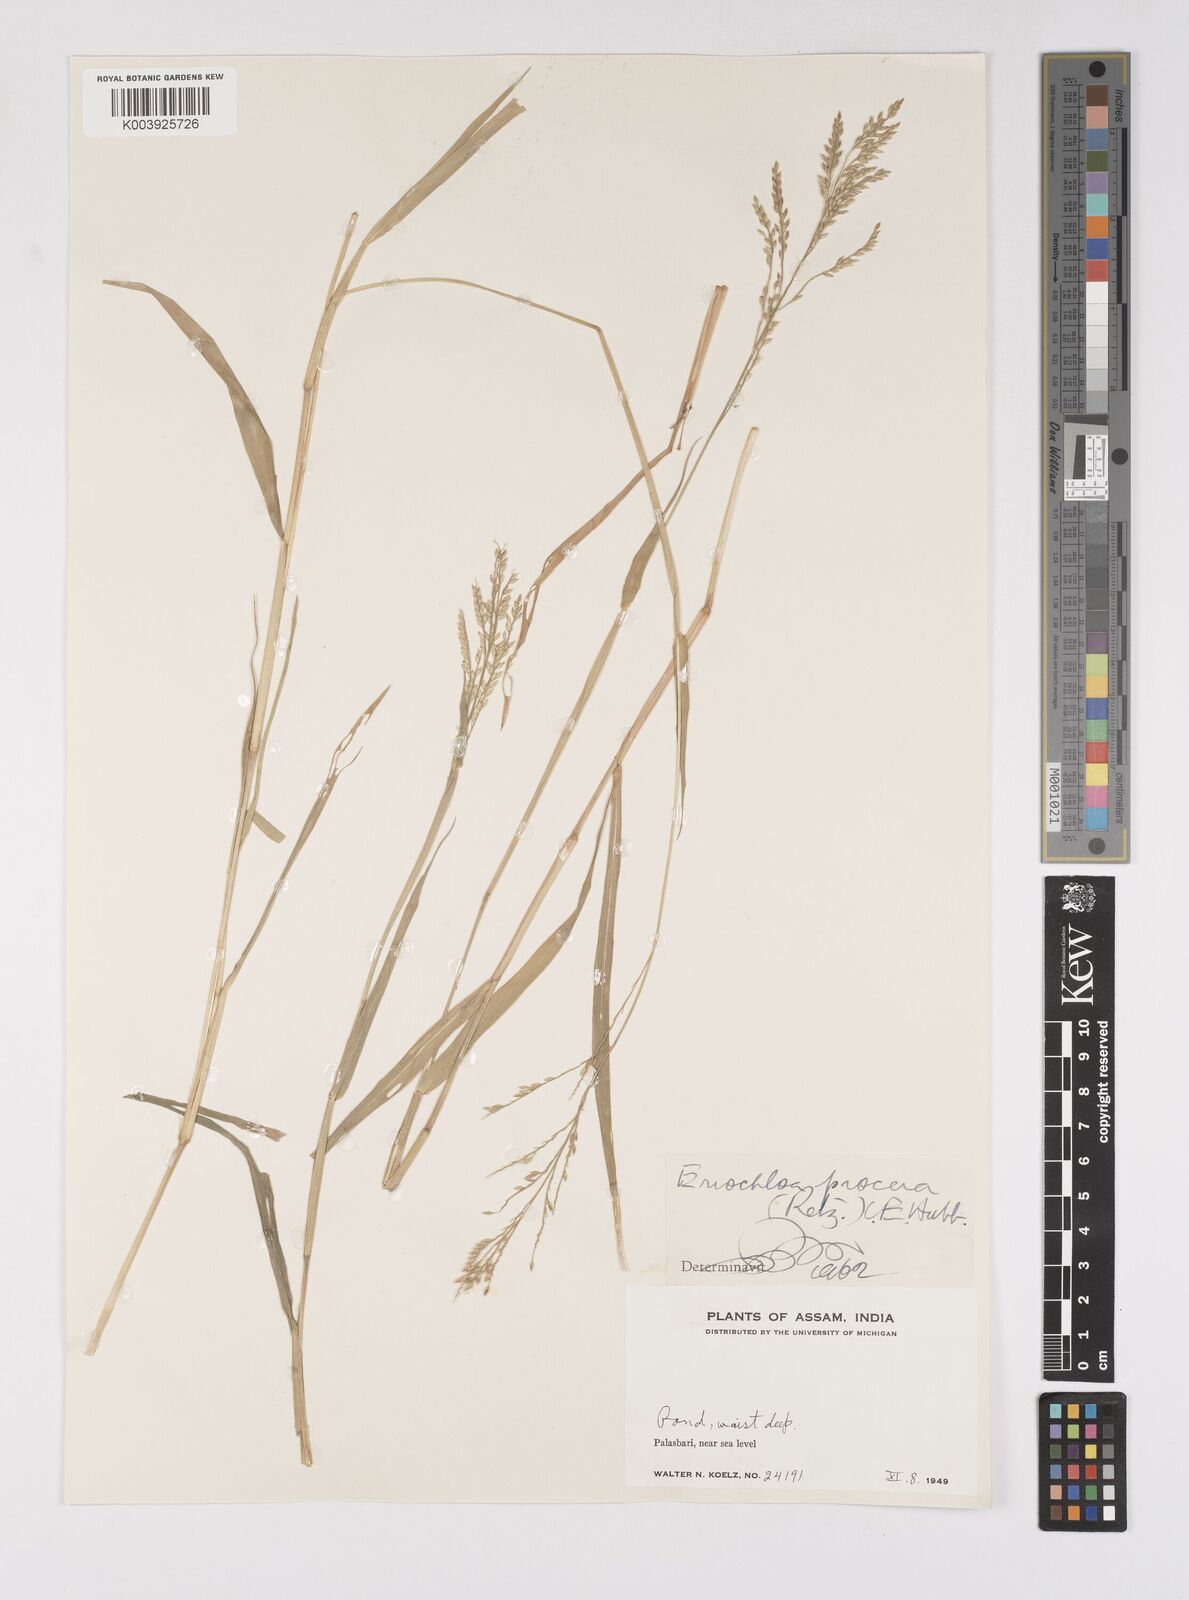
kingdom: Plantae
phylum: Tracheophyta
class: Liliopsida
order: Poales
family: Poaceae
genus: Eriochloa
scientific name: Eriochloa procera
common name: Spring grass
